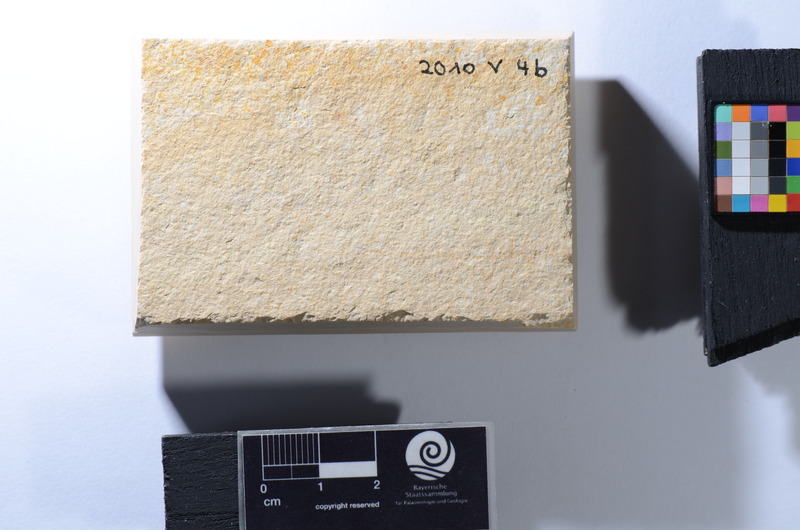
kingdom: Animalia
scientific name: Animalia
